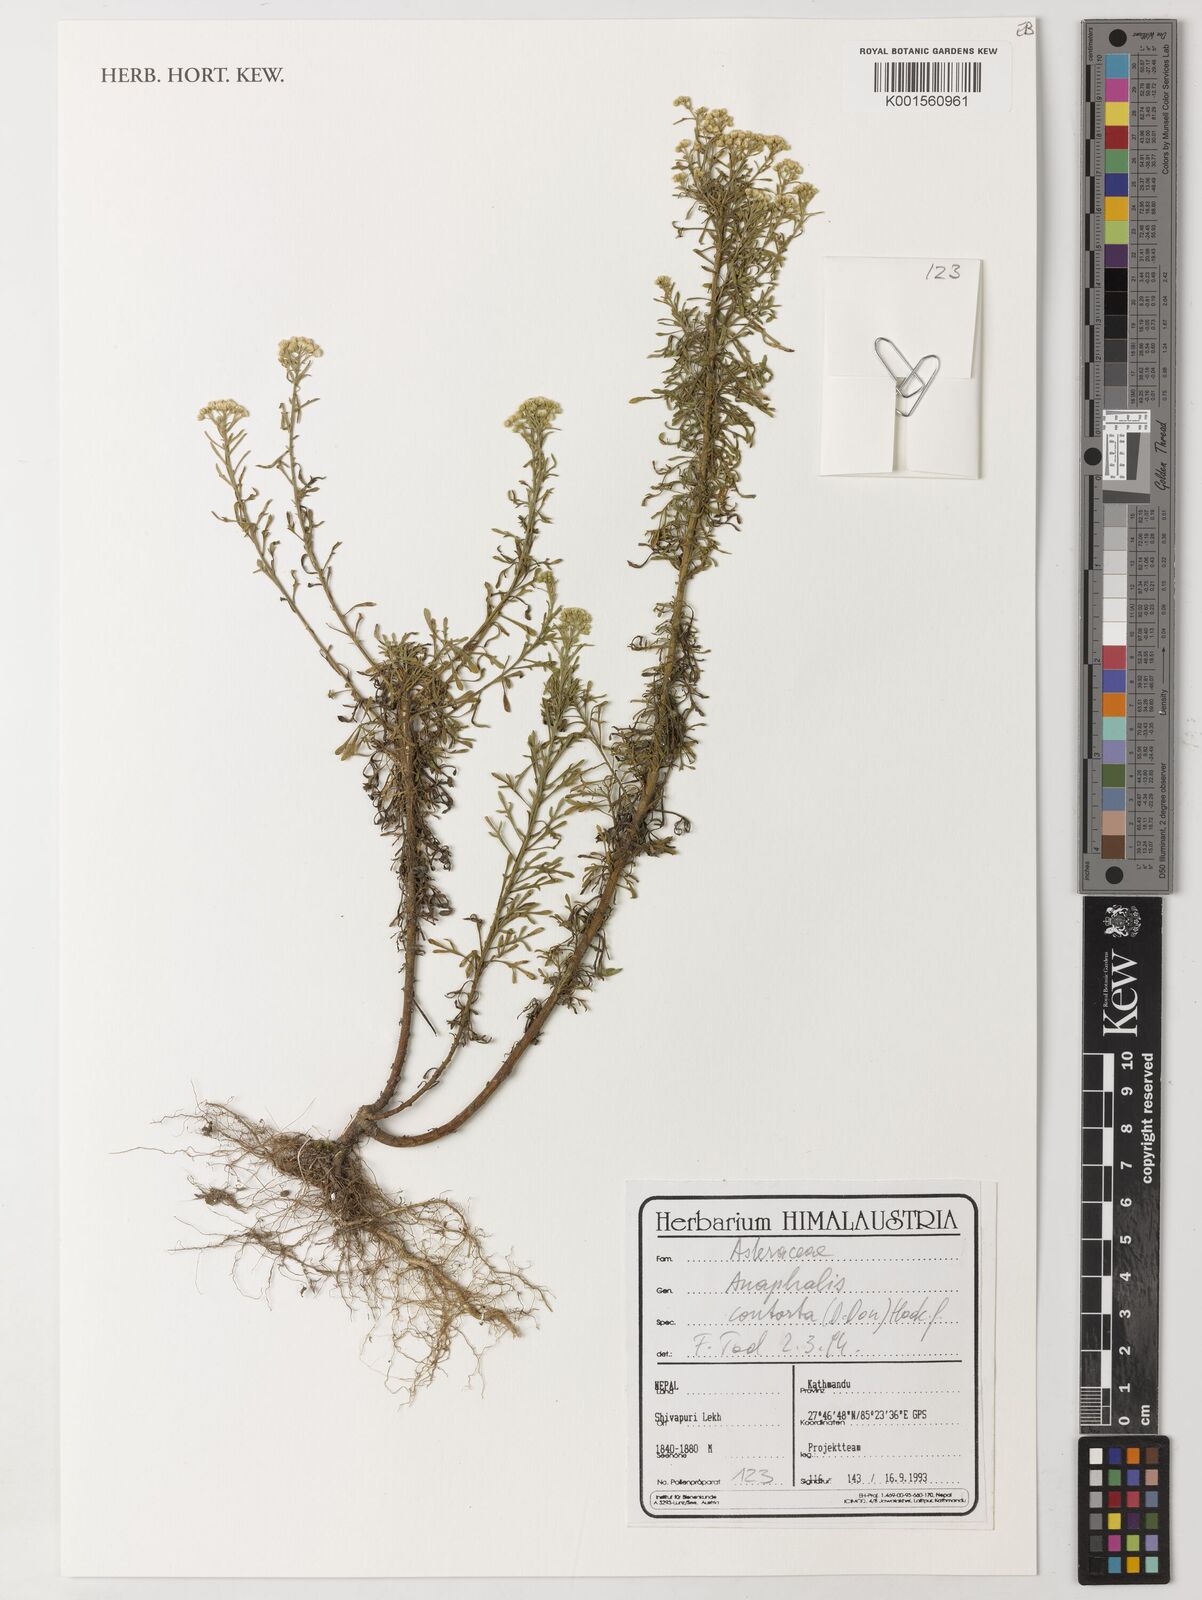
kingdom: Plantae
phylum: Tracheophyta
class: Magnoliopsida
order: Asterales
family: Asteraceae
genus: Anaphalis
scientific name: Anaphalis contorta
